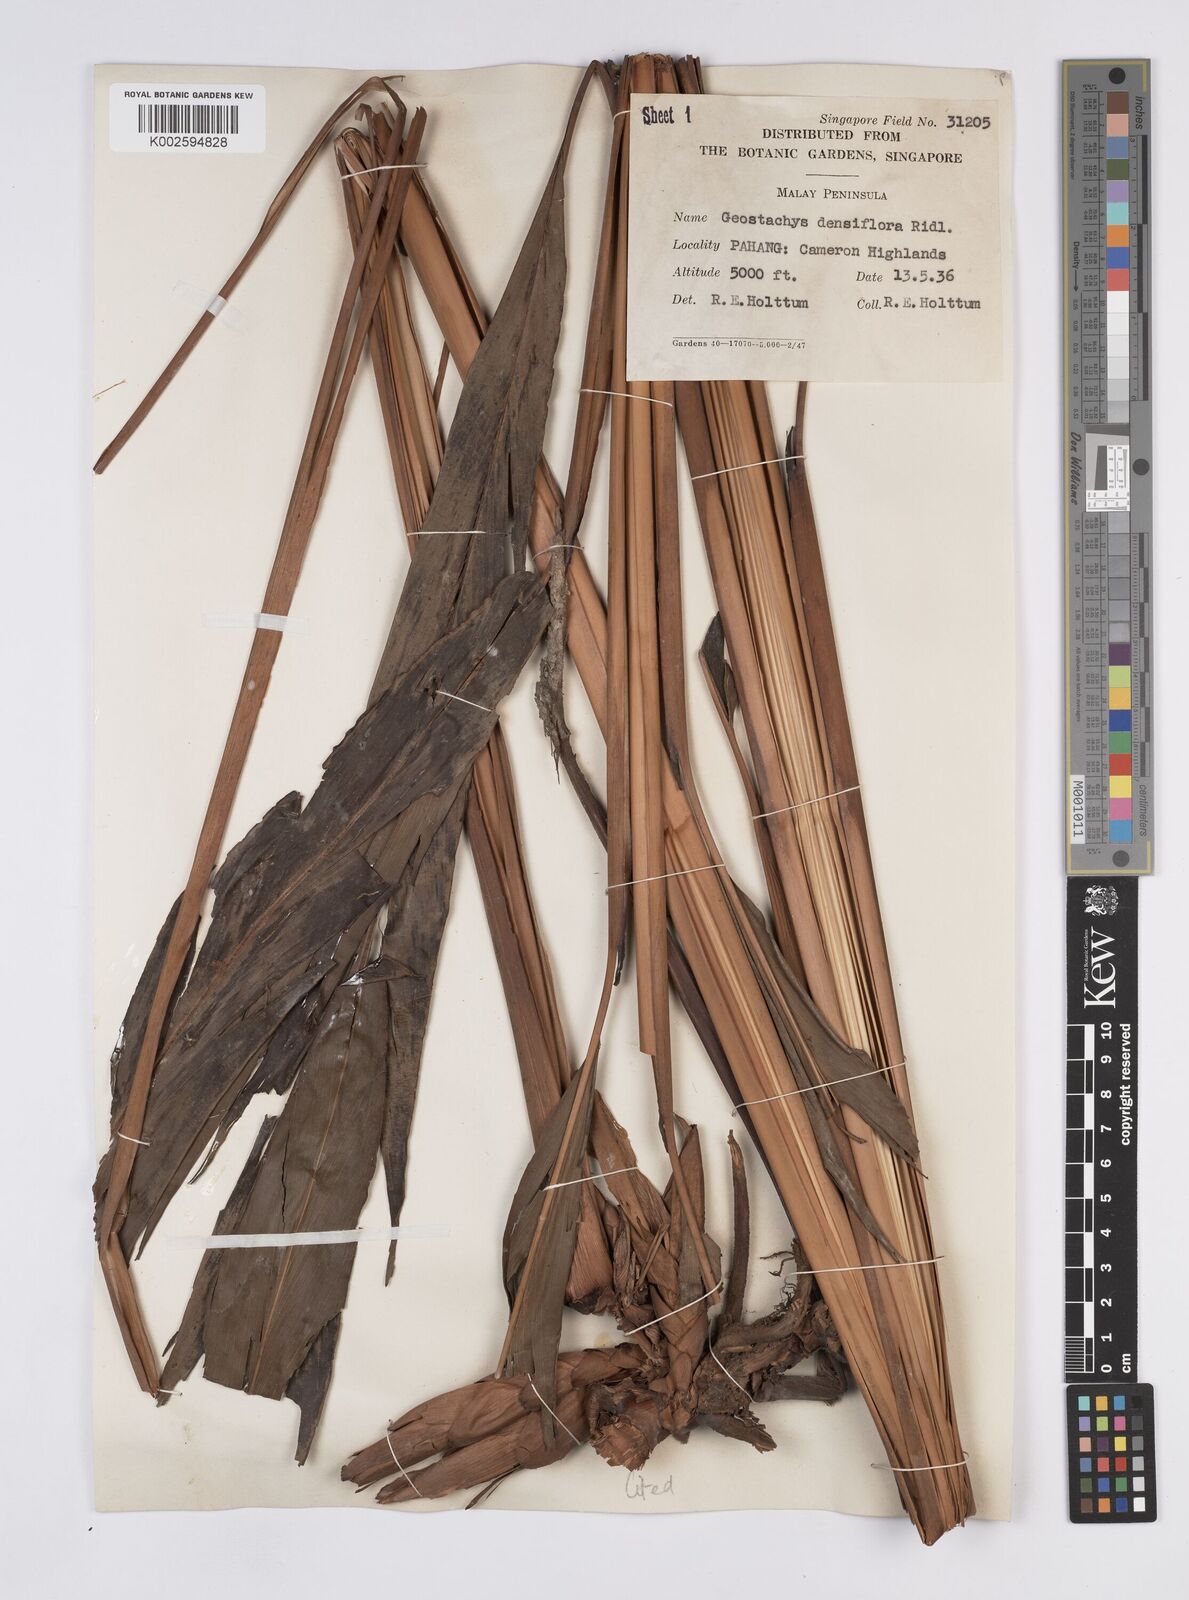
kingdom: Plantae
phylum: Tracheophyta
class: Liliopsida
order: Zingiberales
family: Zingiberaceae
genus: Geostachys
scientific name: Geostachys densiflora
